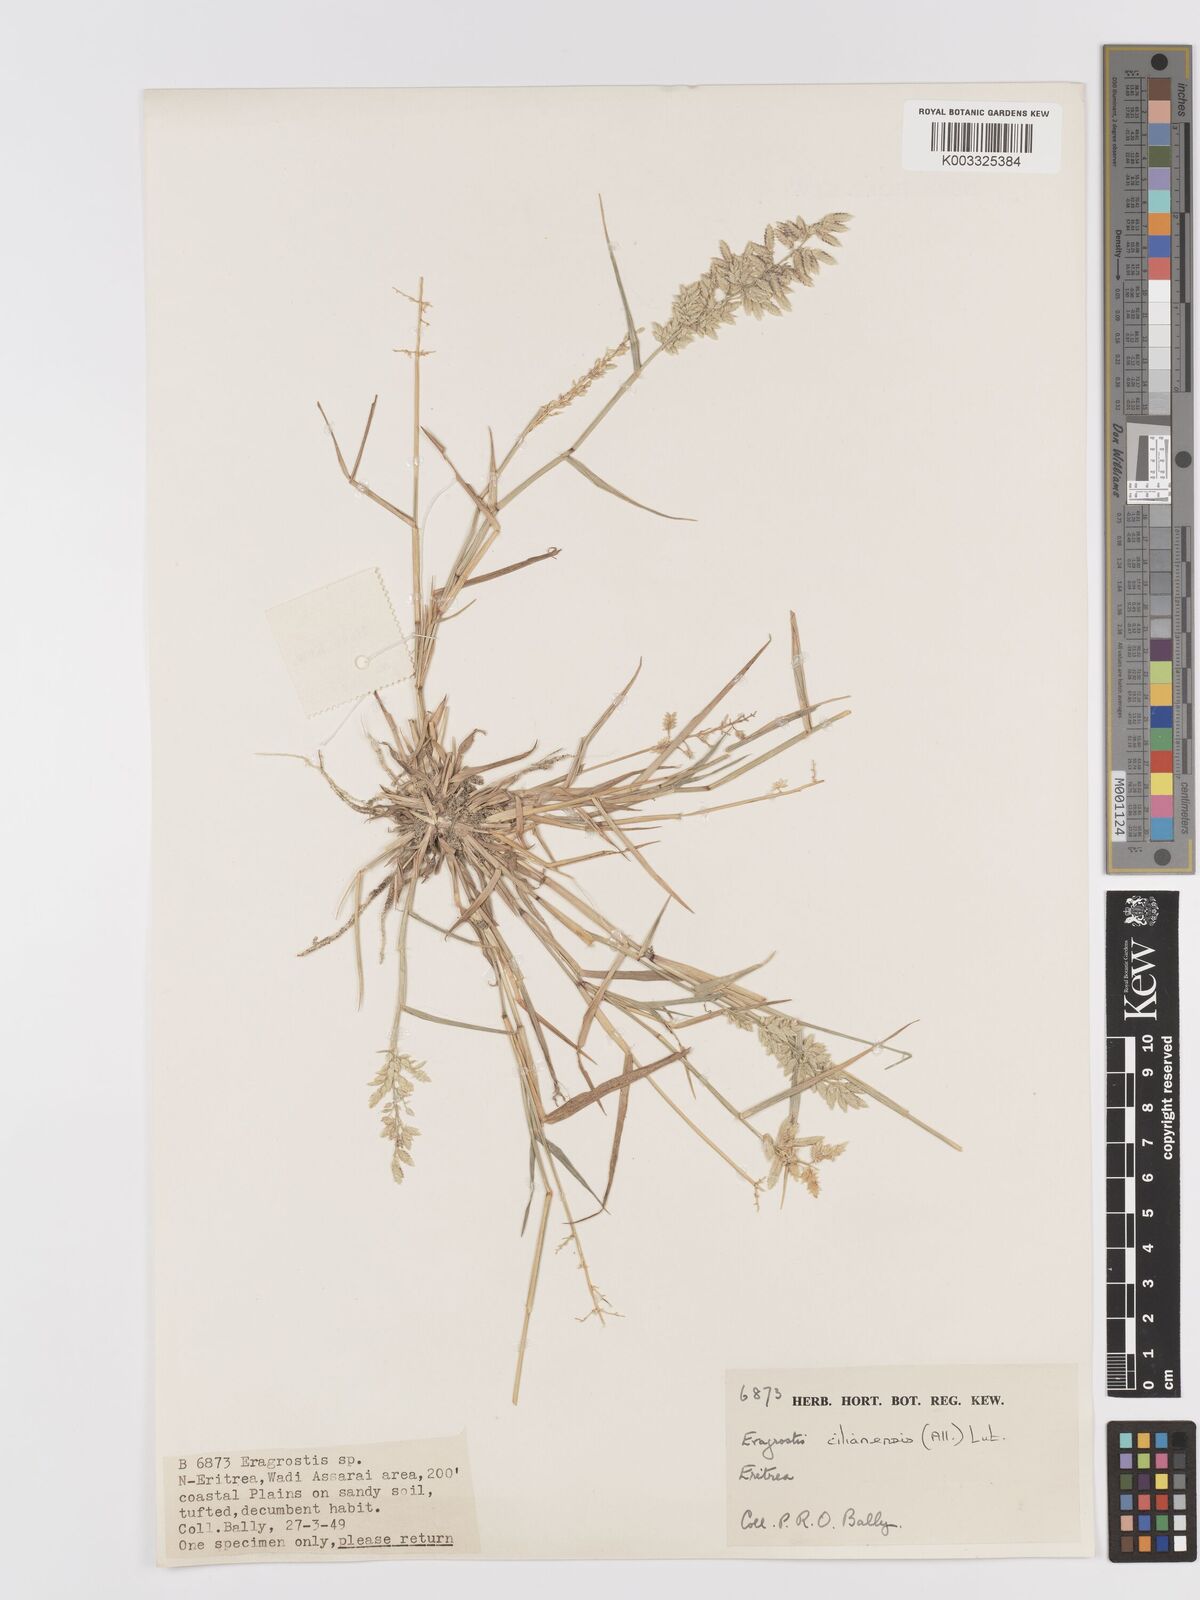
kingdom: Plantae
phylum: Tracheophyta
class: Liliopsida
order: Poales
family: Poaceae
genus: Eragrostis
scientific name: Eragrostis cilianensis
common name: Stinkgrass
